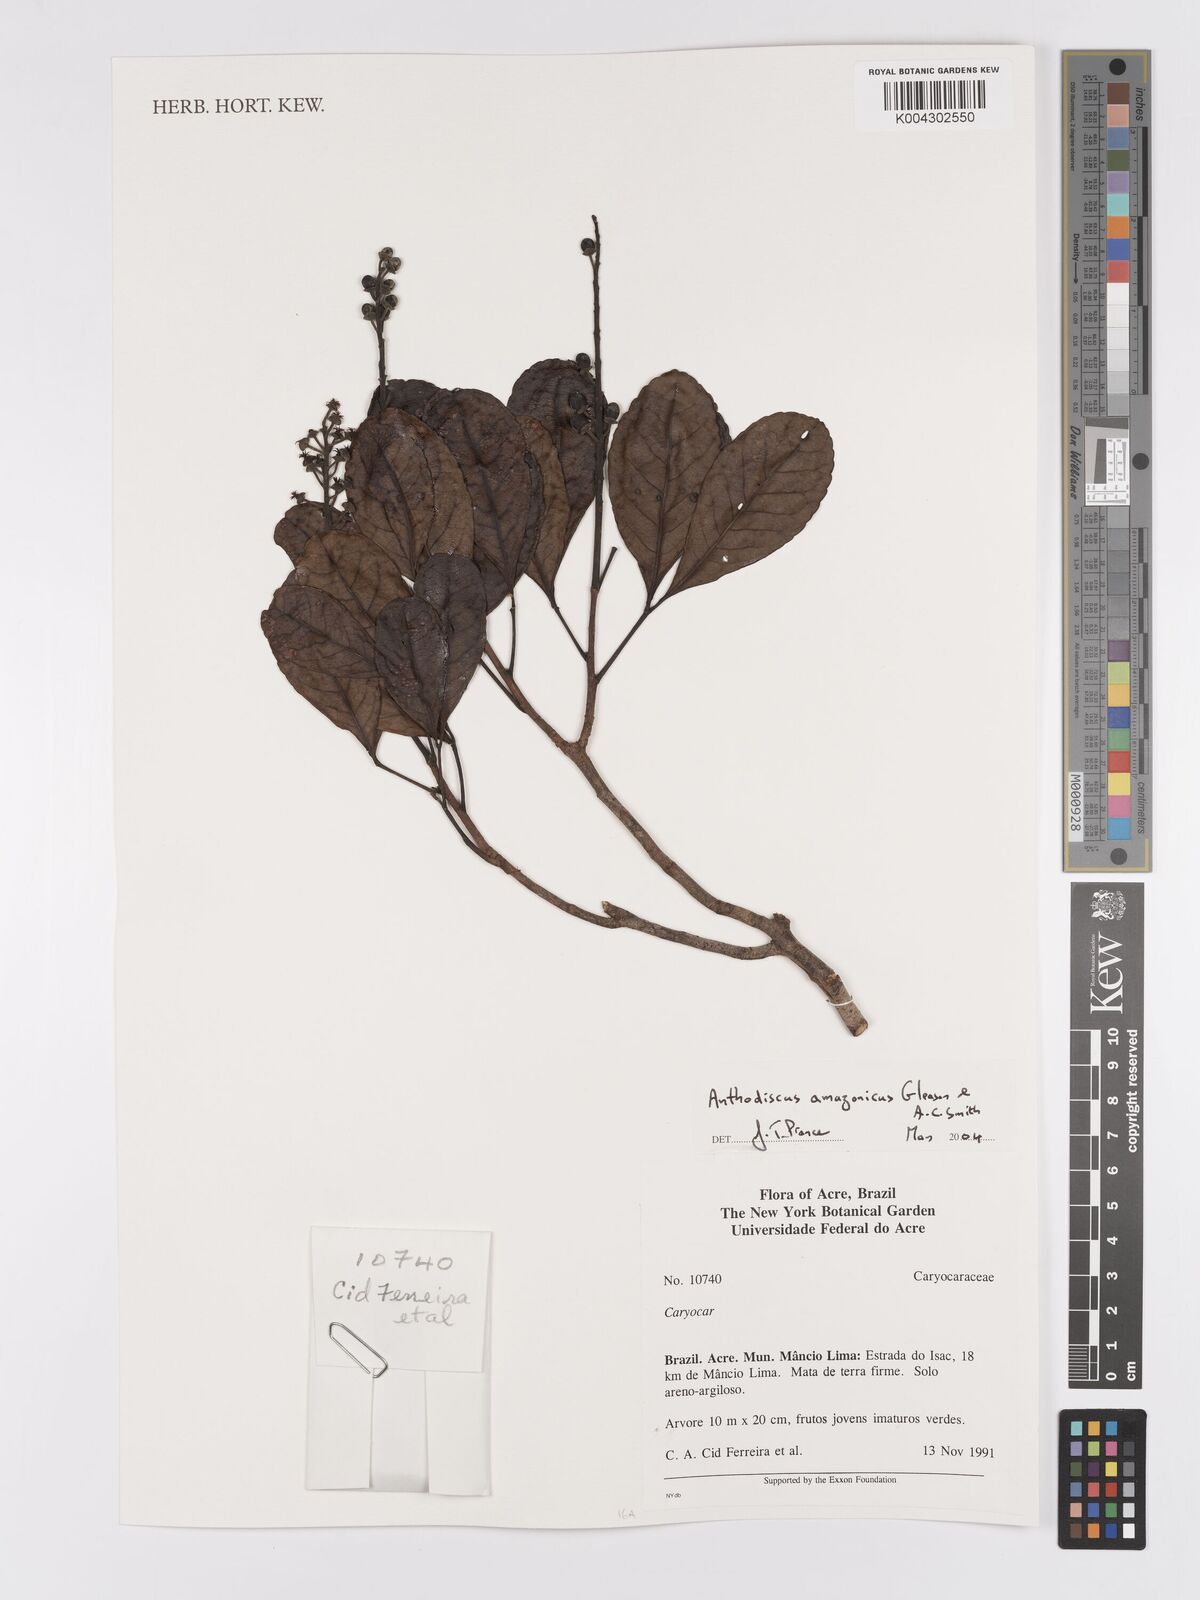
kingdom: Plantae
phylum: Tracheophyta
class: Magnoliopsida
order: Malpighiales
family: Caryocaraceae
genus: Anthodiscus
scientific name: Anthodiscus amazonicus
